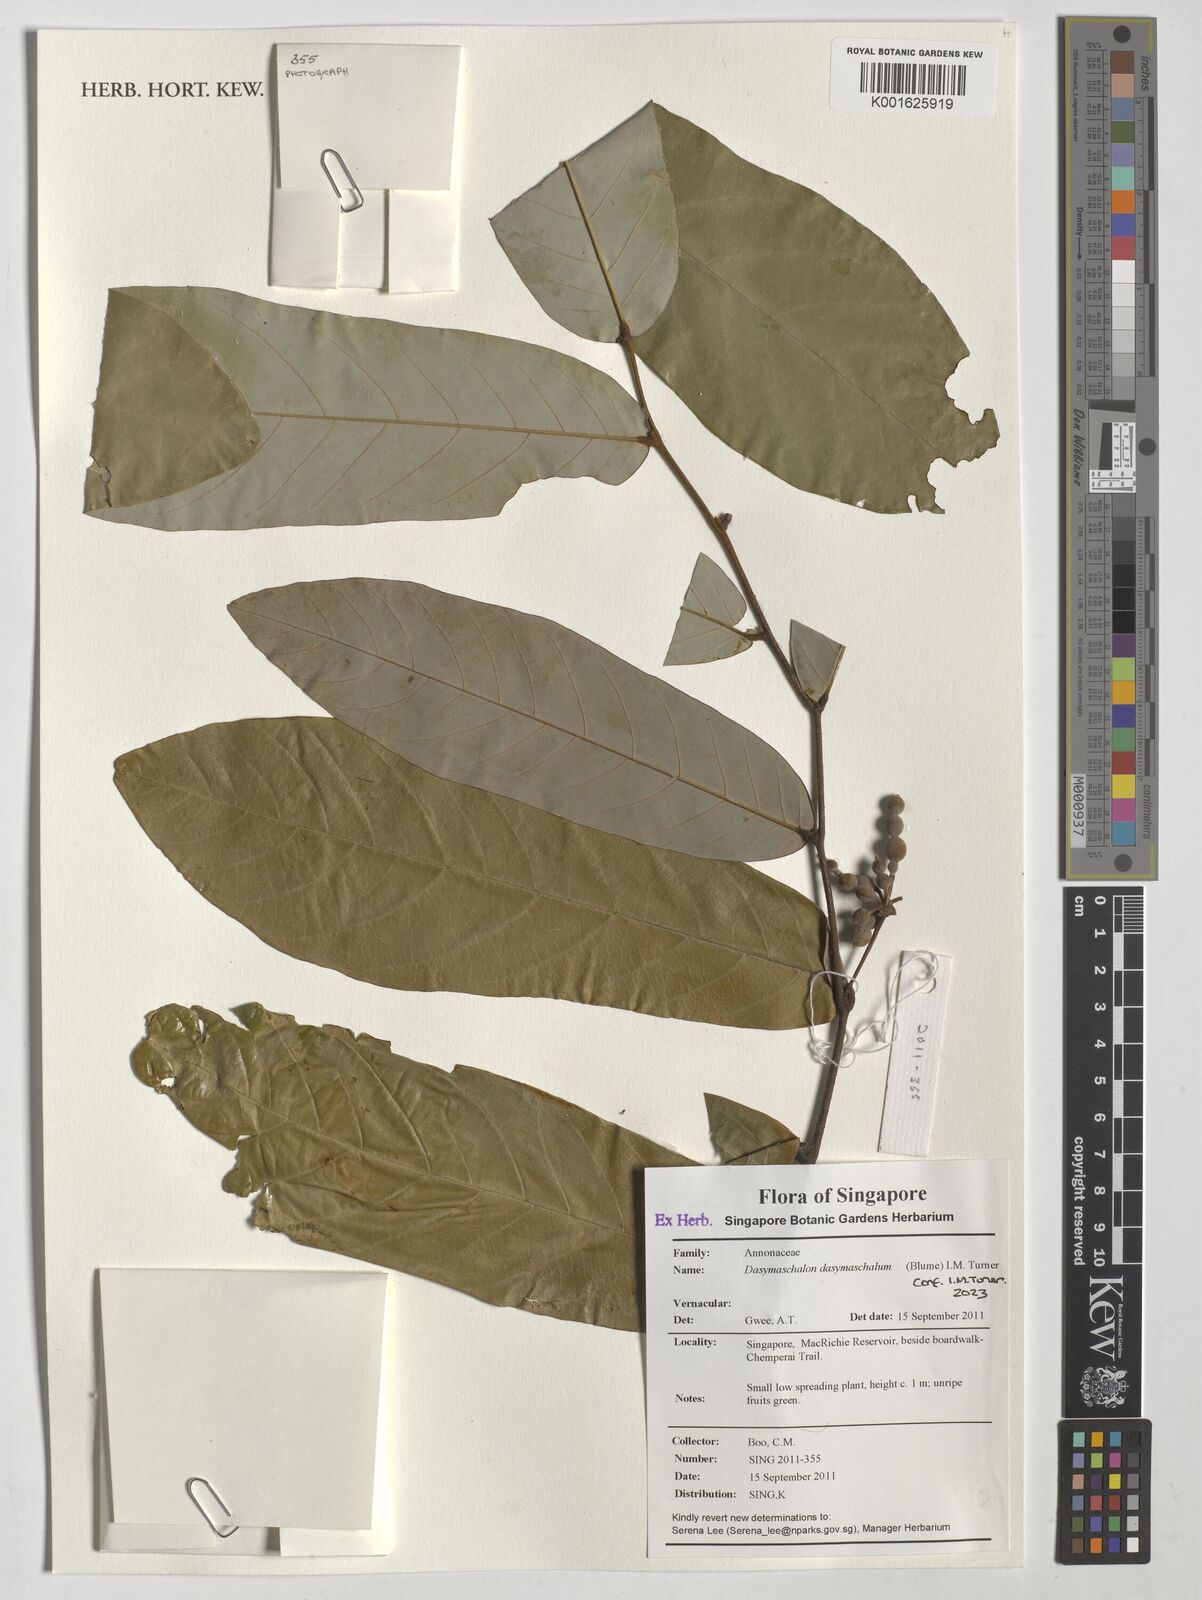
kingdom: Plantae
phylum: Tracheophyta
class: Magnoliopsida
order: Magnoliales
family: Annonaceae
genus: Dasymaschalon
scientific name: Dasymaschalon dasymaschalum
